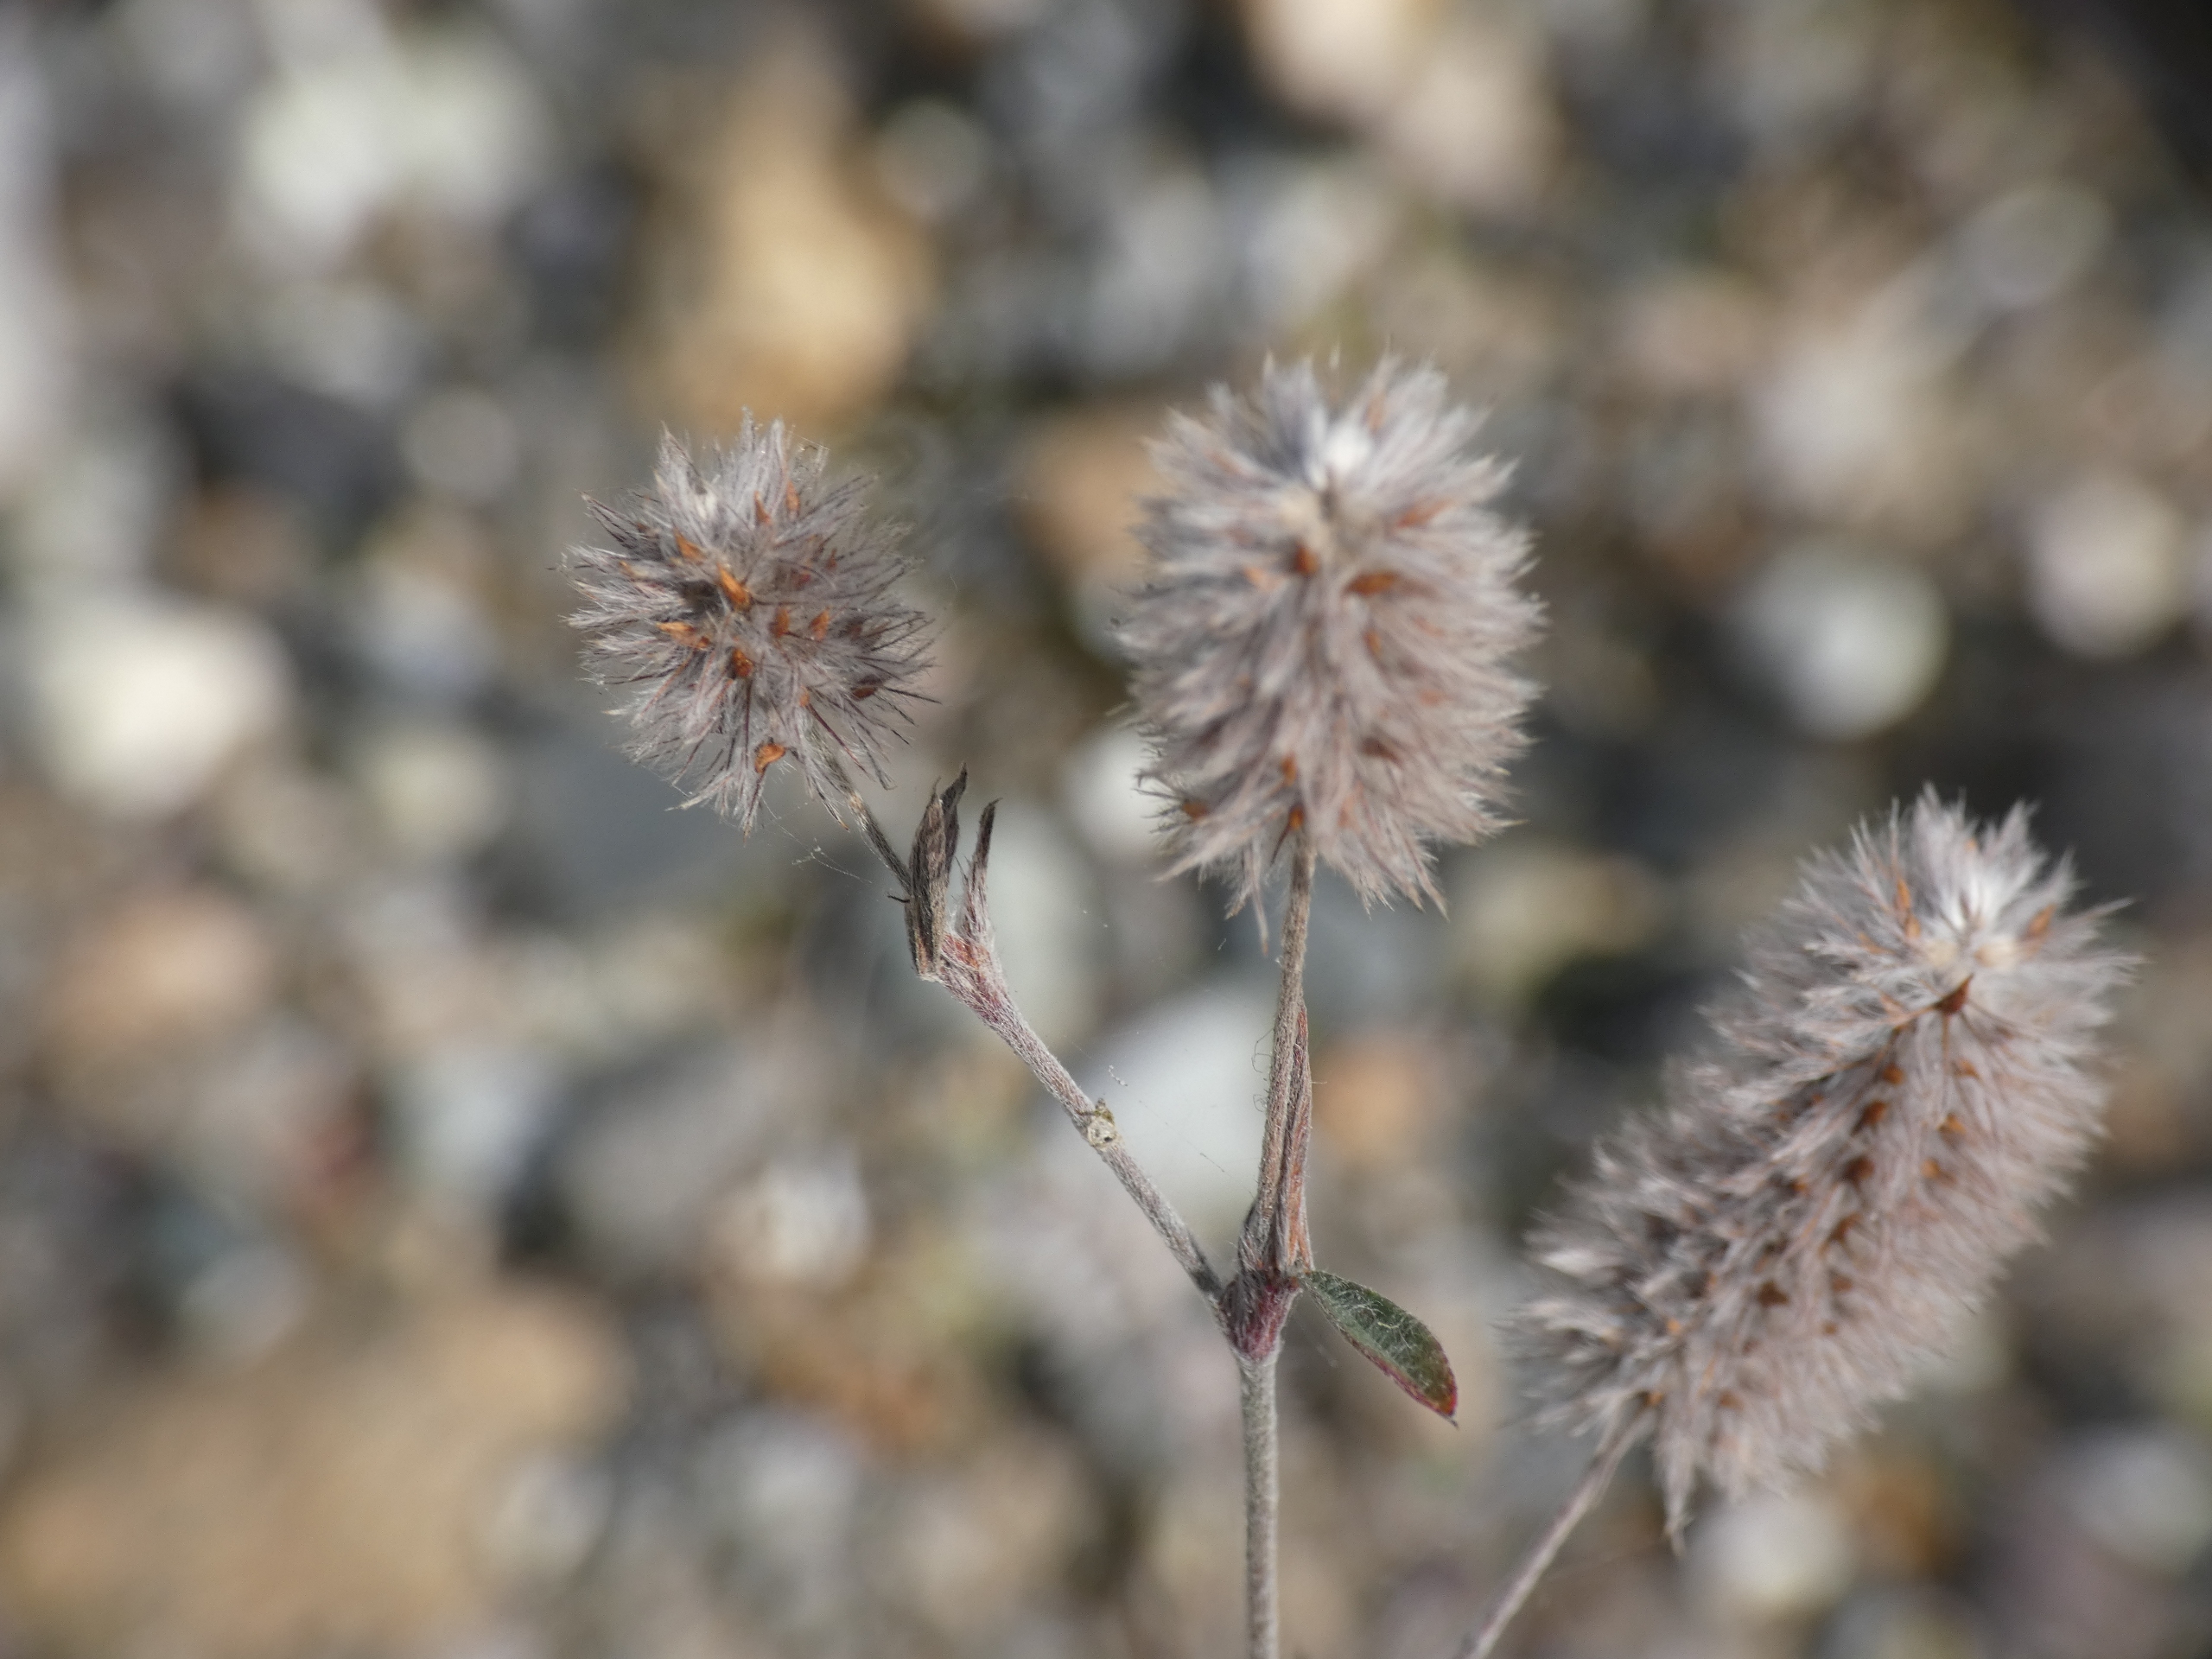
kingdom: Plantae
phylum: Tracheophyta
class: Magnoliopsida
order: Fabales
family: Fabaceae
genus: Trifolium
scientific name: Trifolium arvense
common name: Hare-kløver
